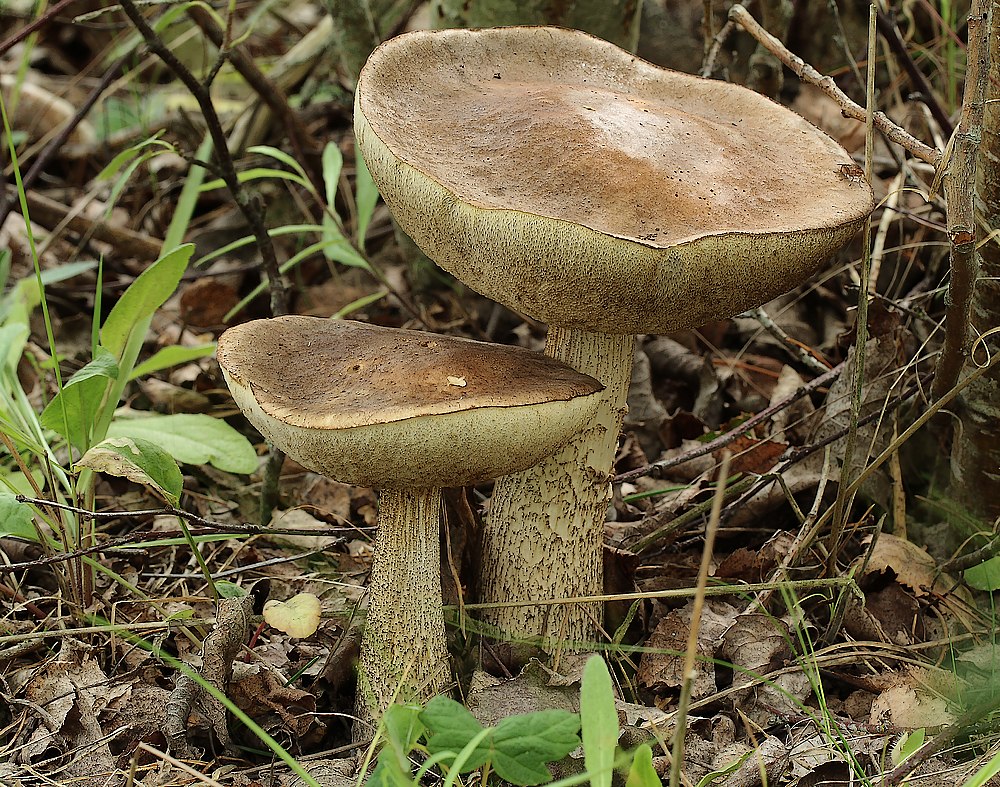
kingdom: Fungi
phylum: Basidiomycota
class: Agaricomycetes
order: Boletales
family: Boletaceae
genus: Leccinum
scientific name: Leccinum scabrum
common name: brun skælrørhat
